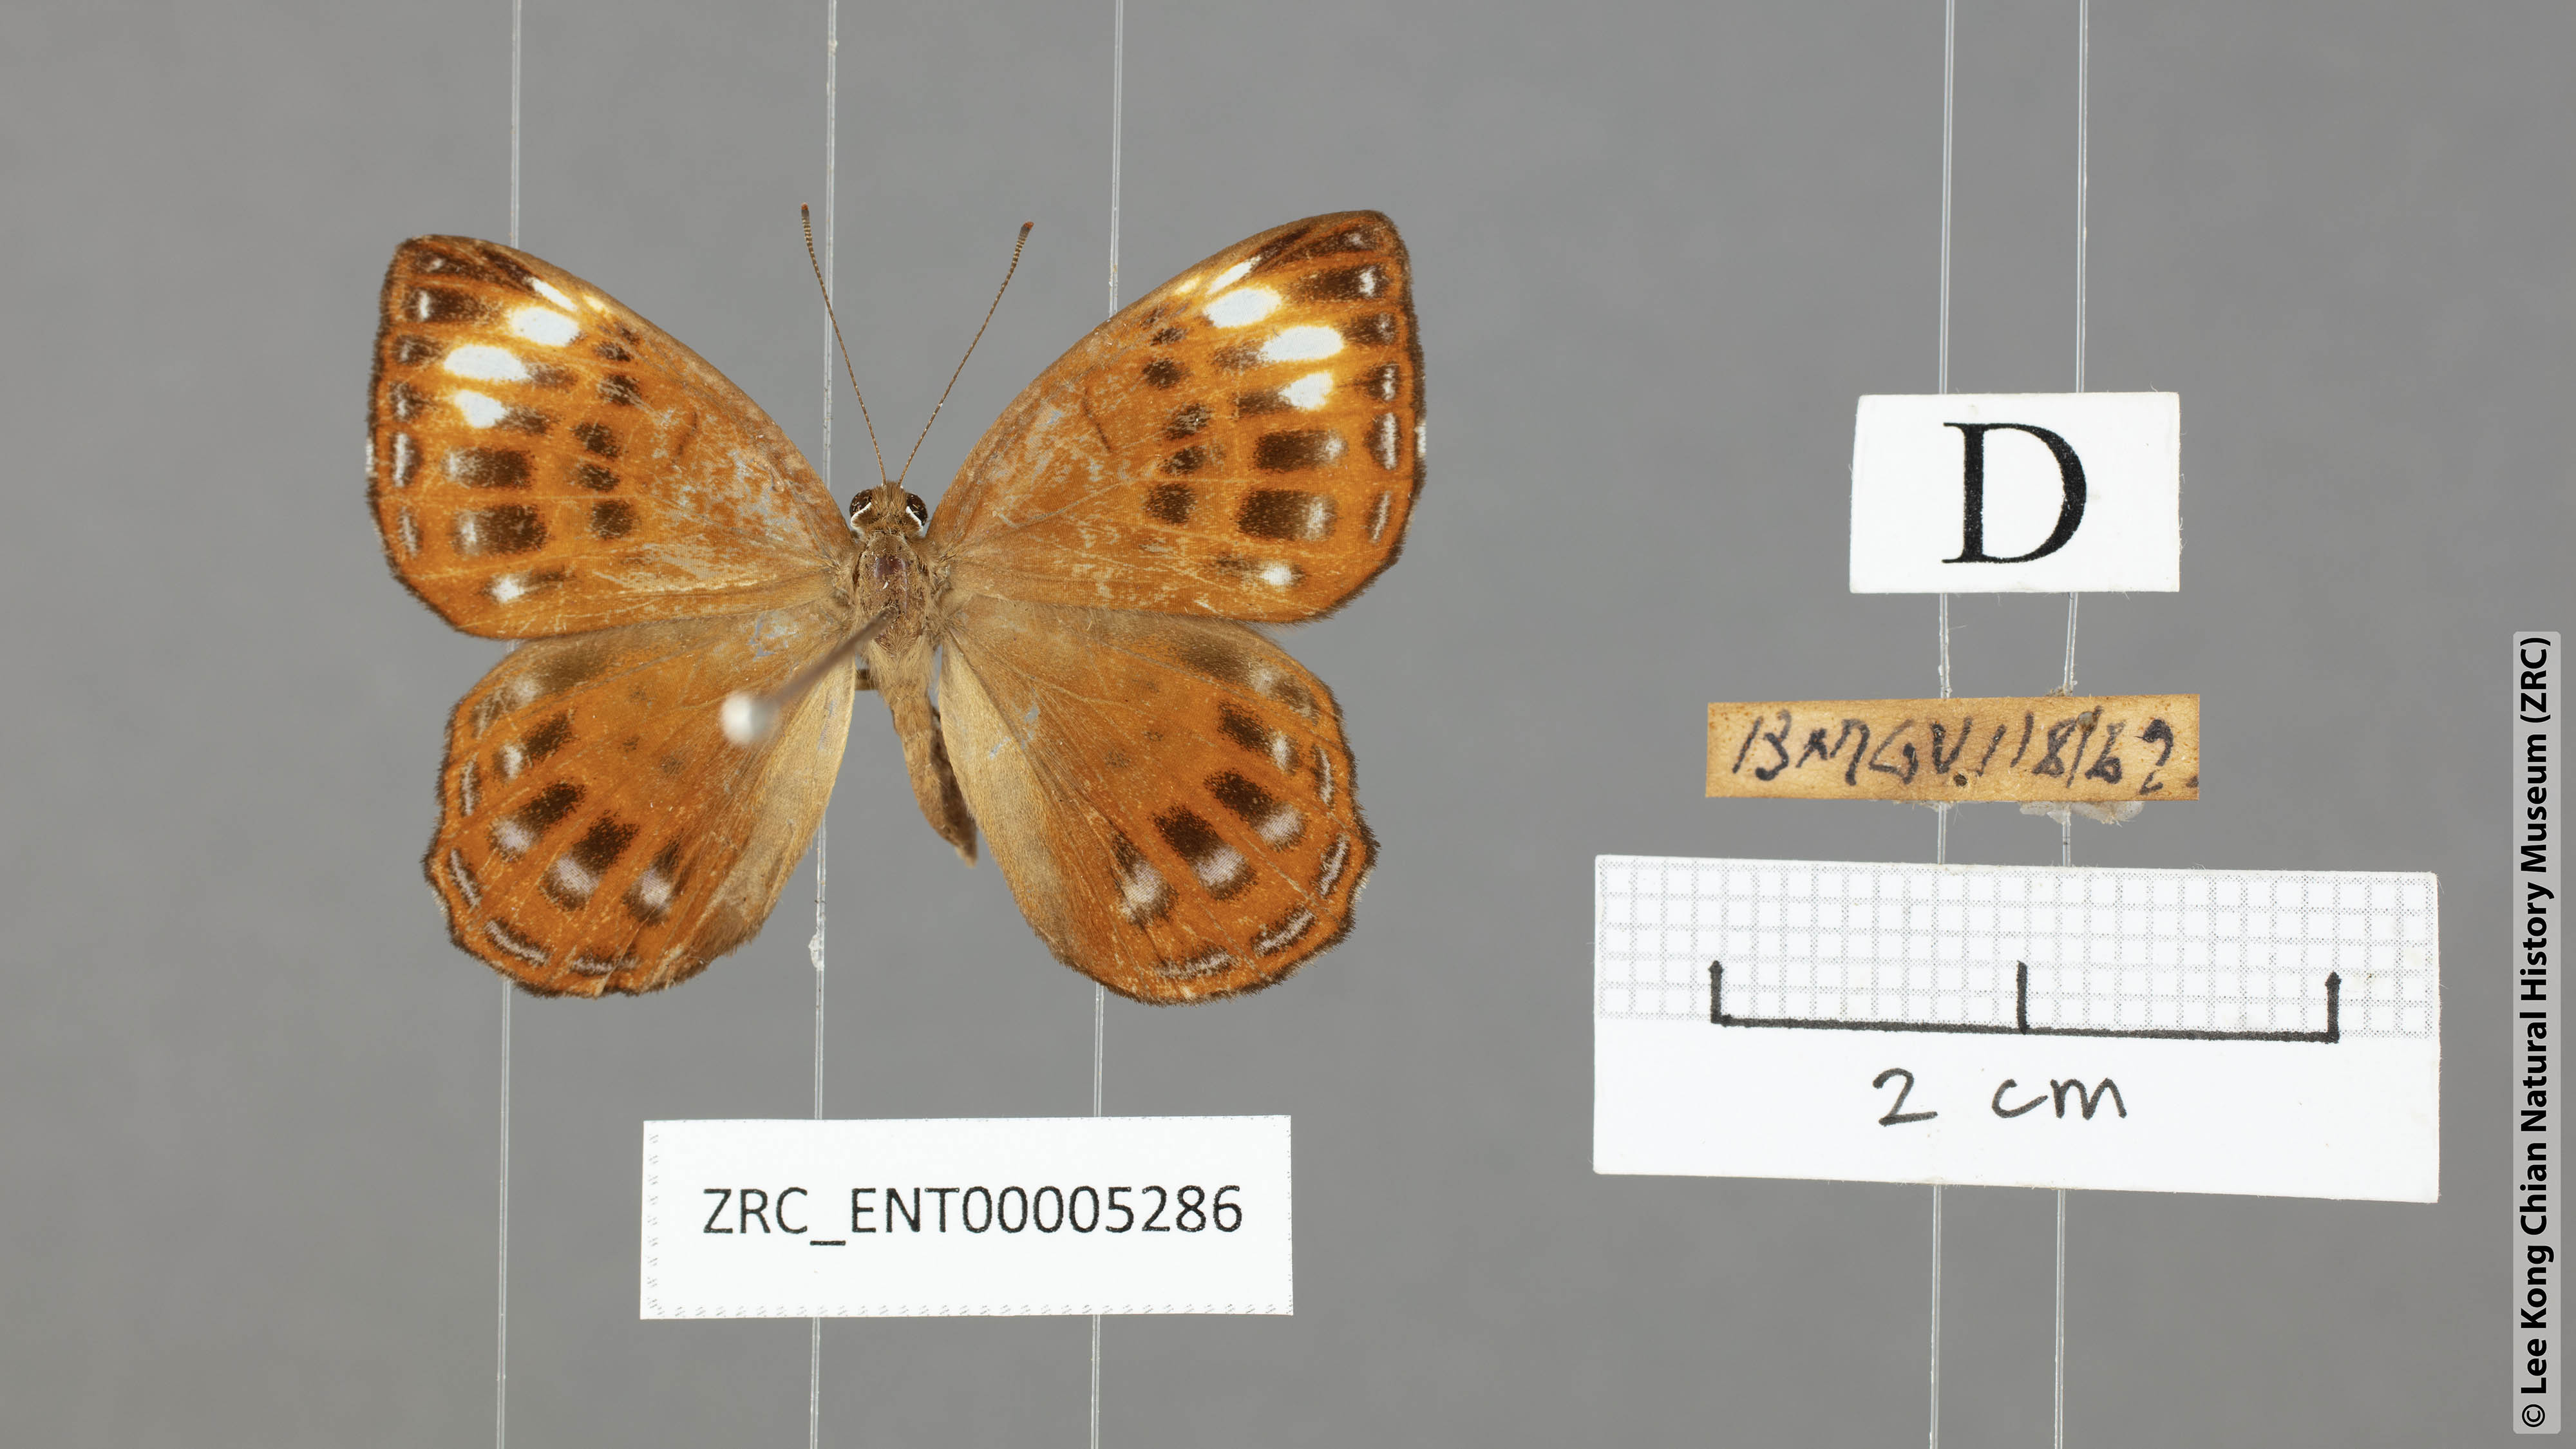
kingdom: Animalia
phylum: Arthropoda
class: Insecta
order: Lepidoptera
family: Riodinidae
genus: Laxita
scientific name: Laxita thuisto
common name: Lesser harlequin
